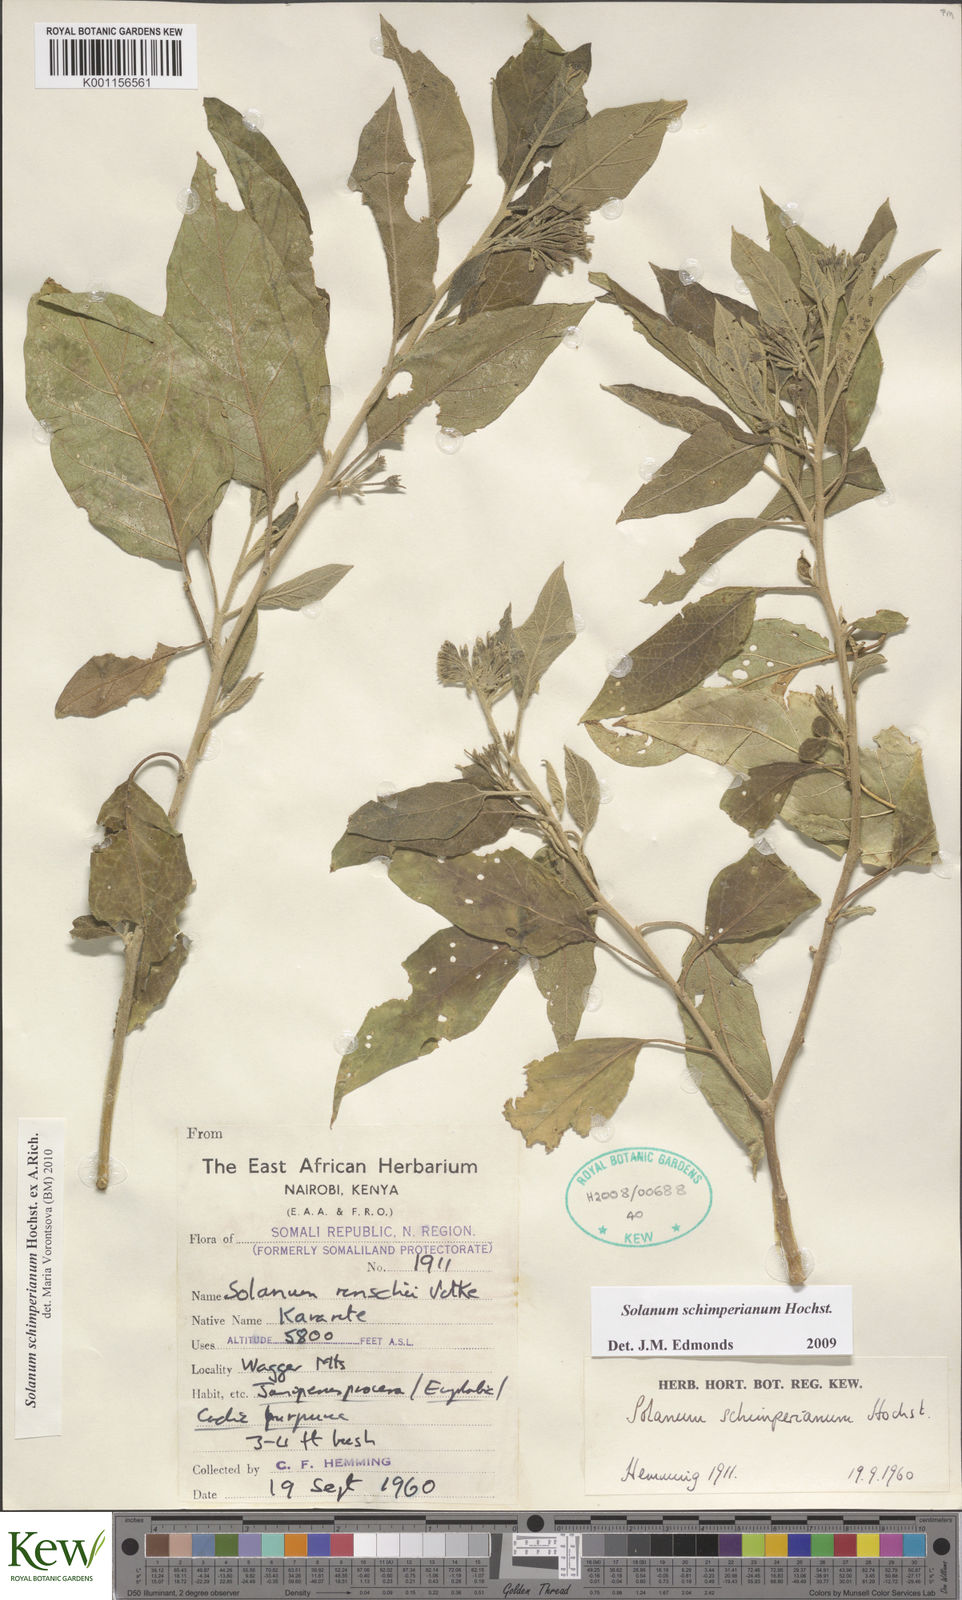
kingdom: Plantae
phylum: Tracheophyta
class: Magnoliopsida
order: Solanales
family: Solanaceae
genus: Solanum
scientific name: Solanum
